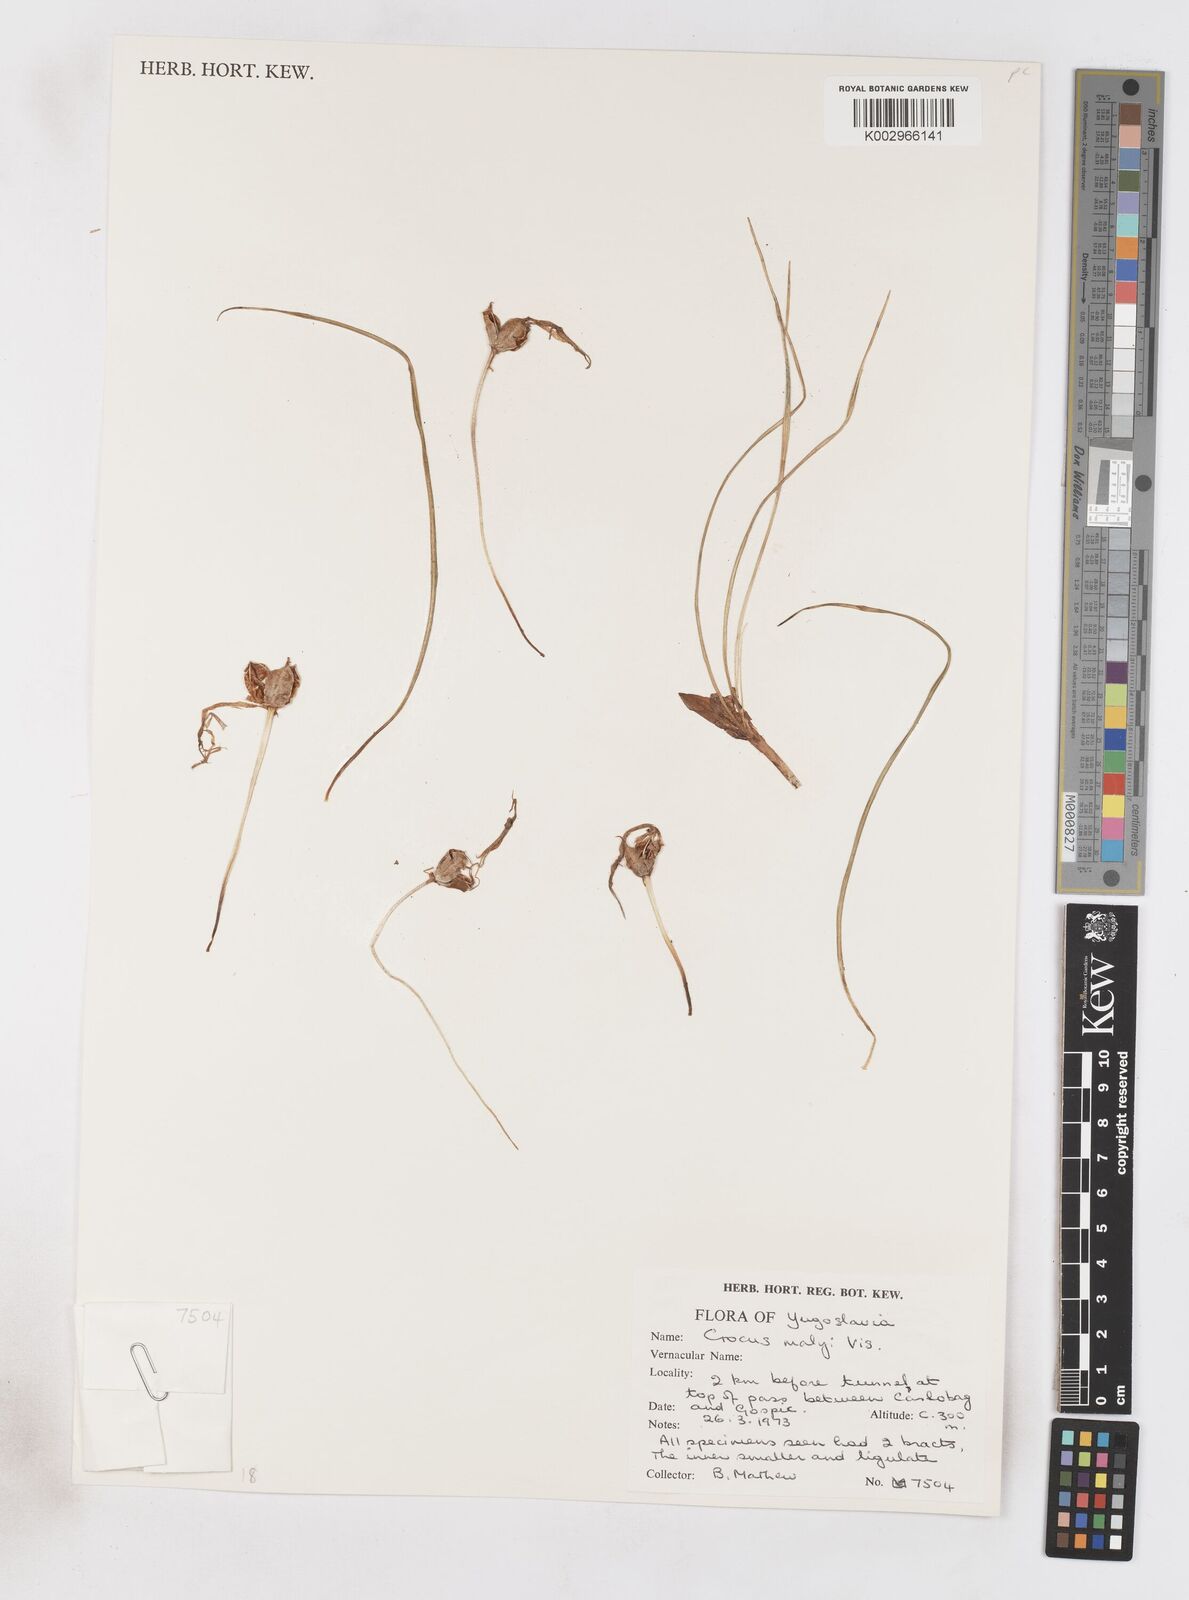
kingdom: Plantae
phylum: Tracheophyta
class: Liliopsida
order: Asparagales
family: Iridaceae
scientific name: Iridaceae
